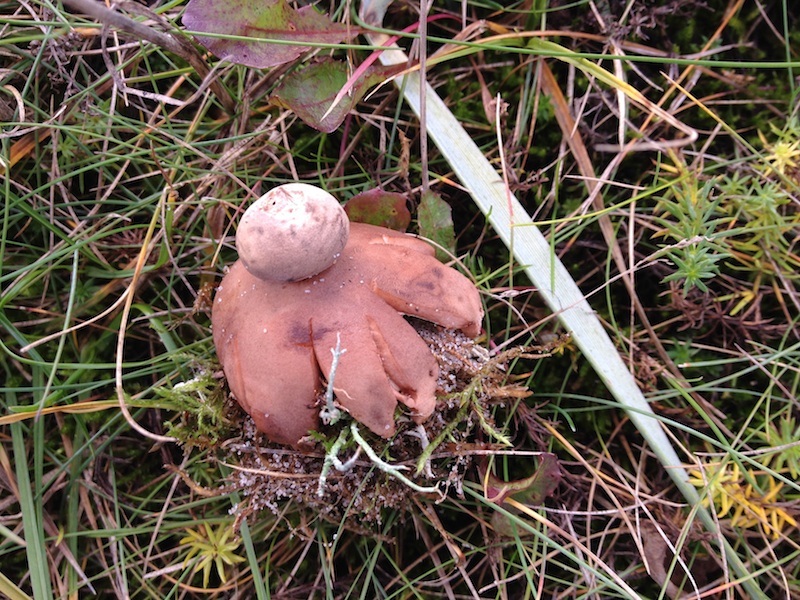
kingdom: Fungi
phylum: Basidiomycota
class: Agaricomycetes
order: Geastrales
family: Geastraceae
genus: Geastrum
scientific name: Geastrum striatum
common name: dværg-stjernebold
